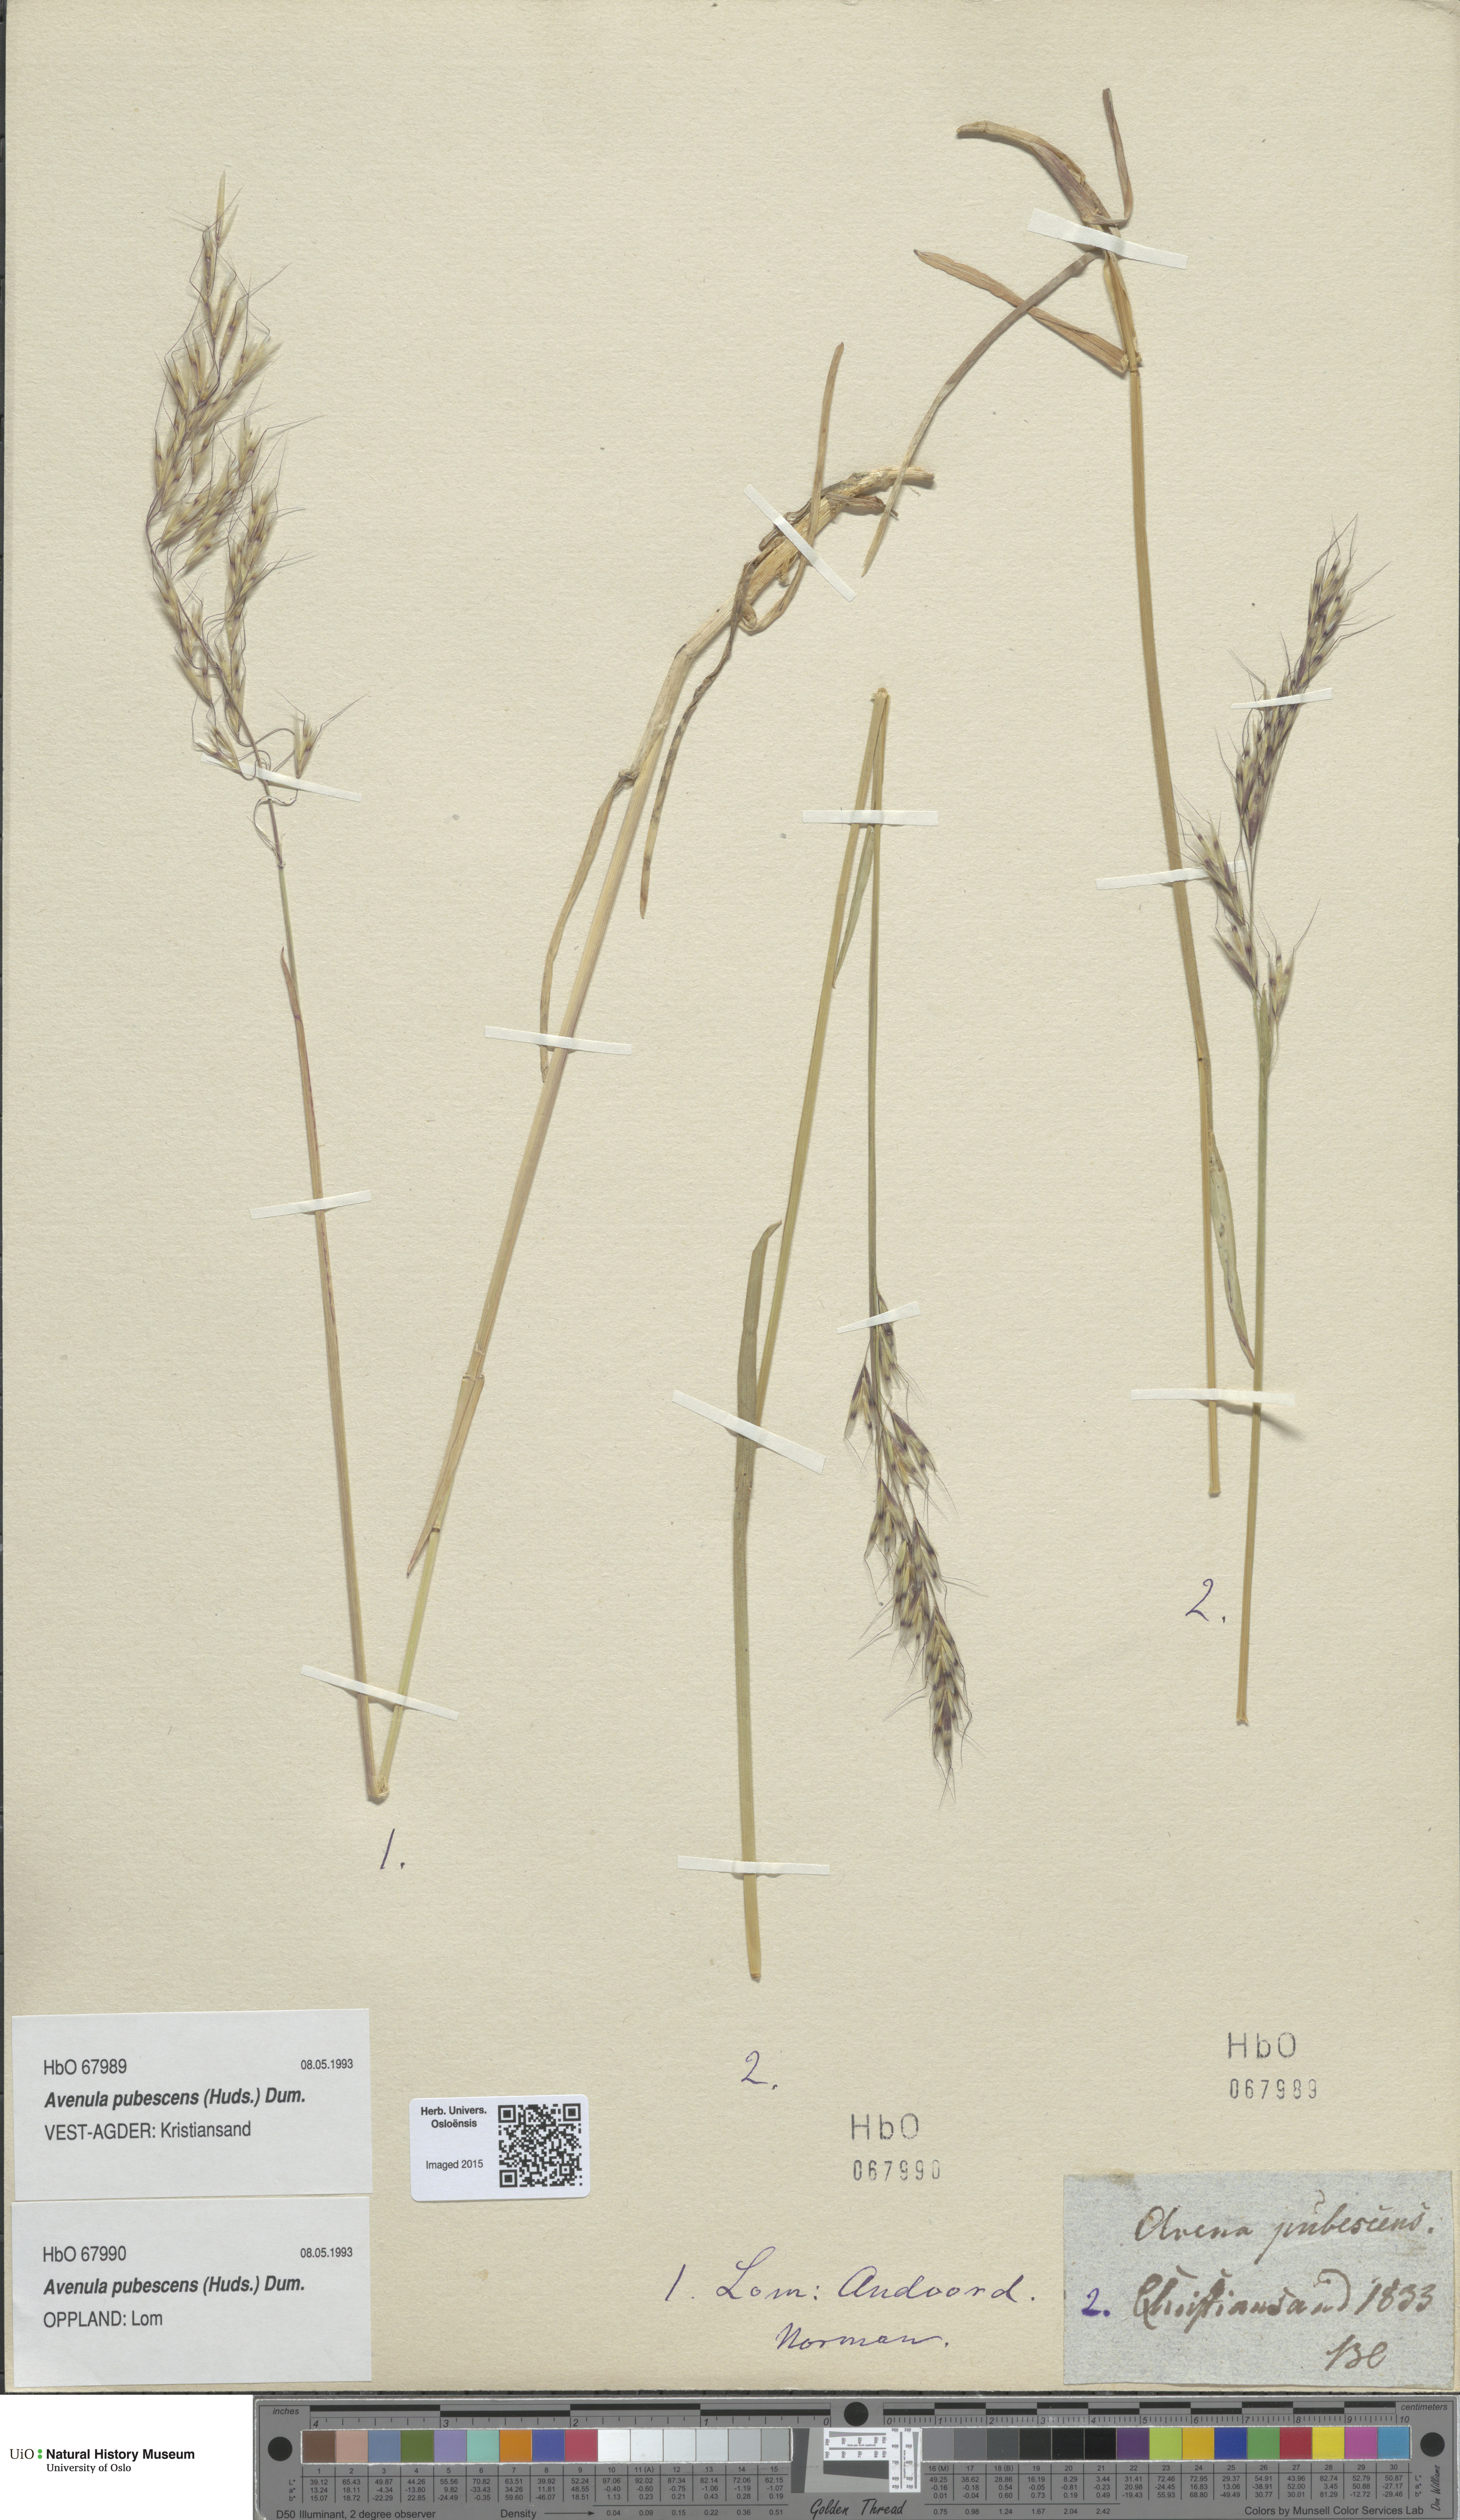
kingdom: Plantae
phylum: Tracheophyta
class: Liliopsida
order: Poales
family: Poaceae
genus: Avenula
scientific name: Avenula pubescens
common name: Downy alpine oatgrass
